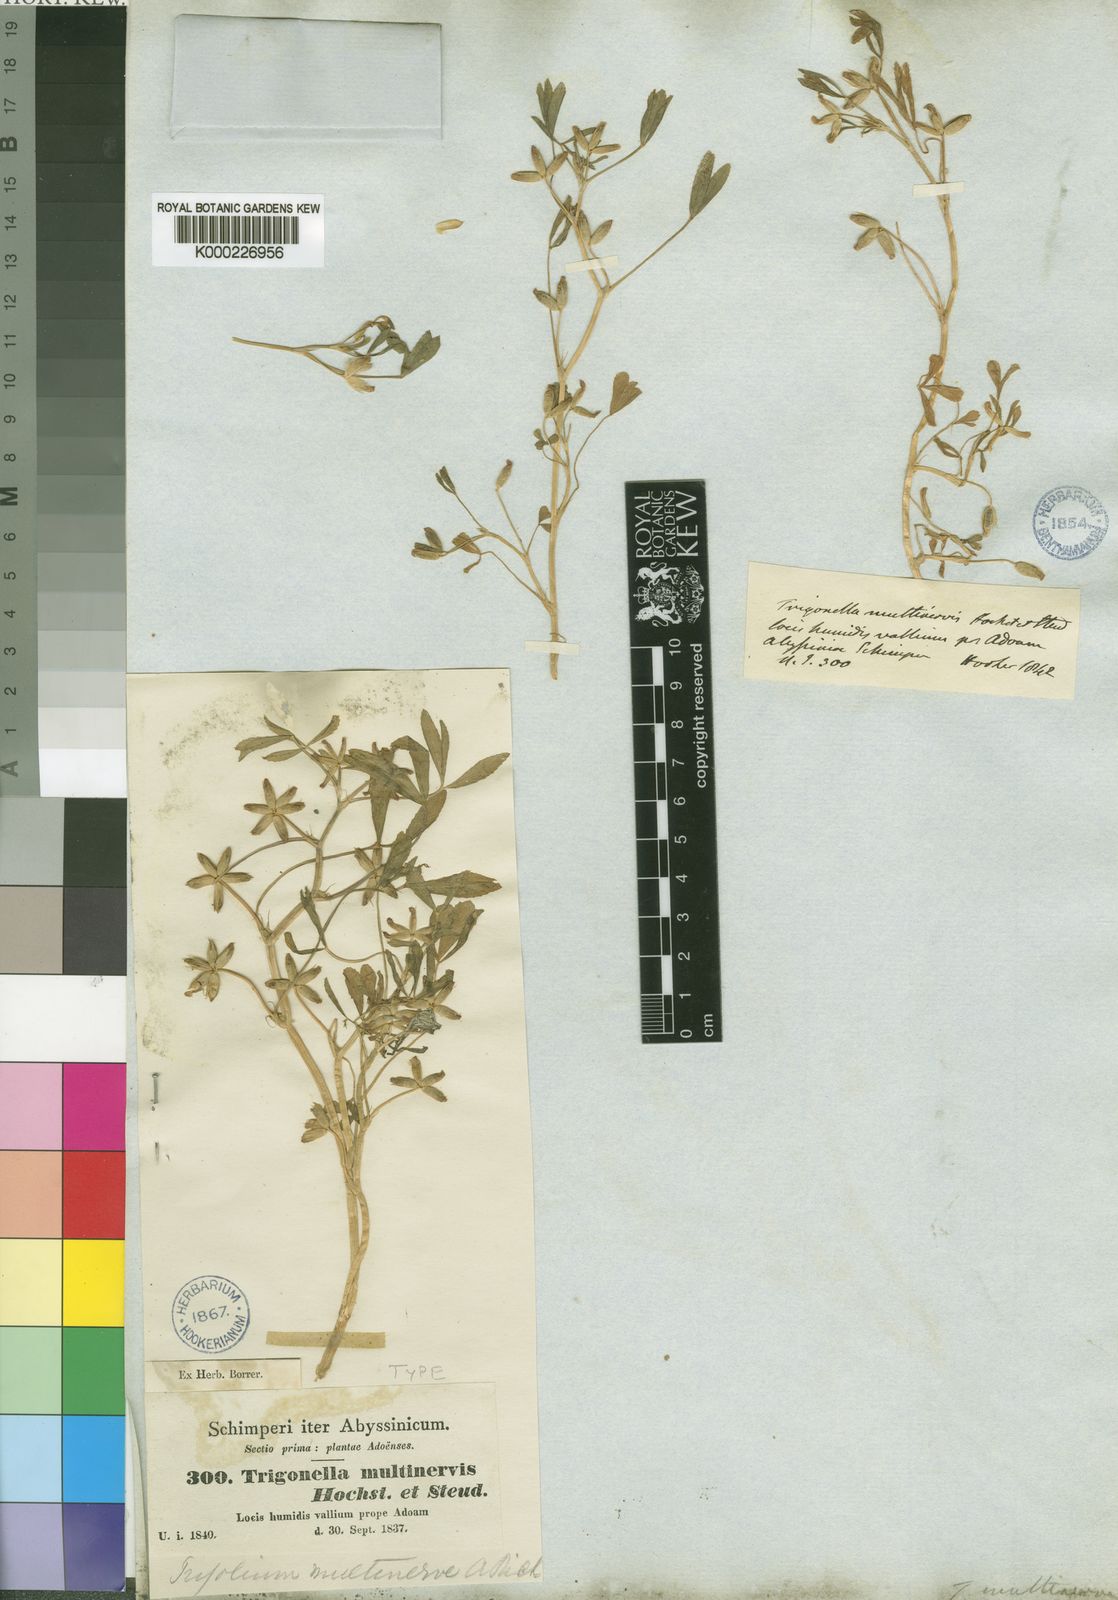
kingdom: Plantae
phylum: Tracheophyta
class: Magnoliopsida
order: Fabales
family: Fabaceae
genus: Trifolium
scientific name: Trifolium multinerve
